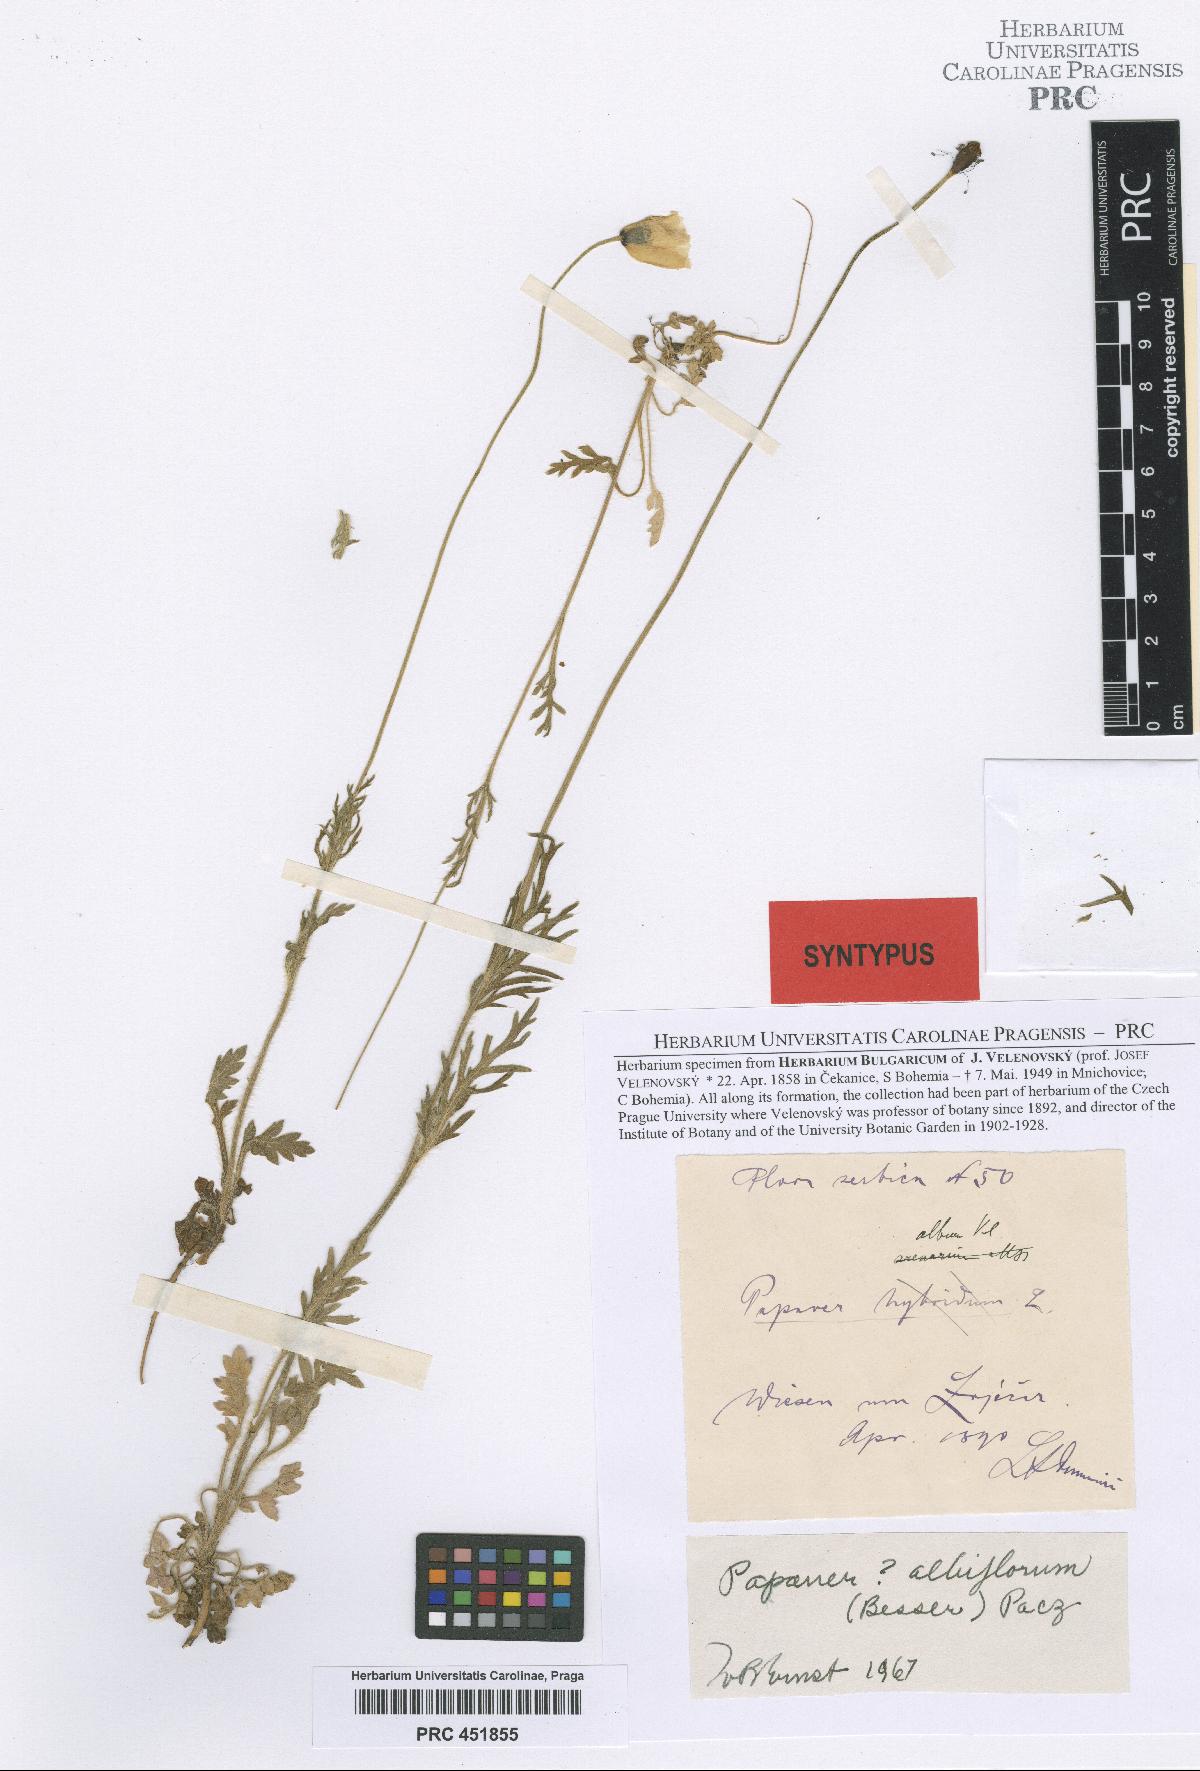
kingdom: Plantae
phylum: Tracheophyta
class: Magnoliopsida
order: Ranunculales
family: Papaveraceae
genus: Papaver
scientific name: Papaver dubium
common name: Long-headed poppy
